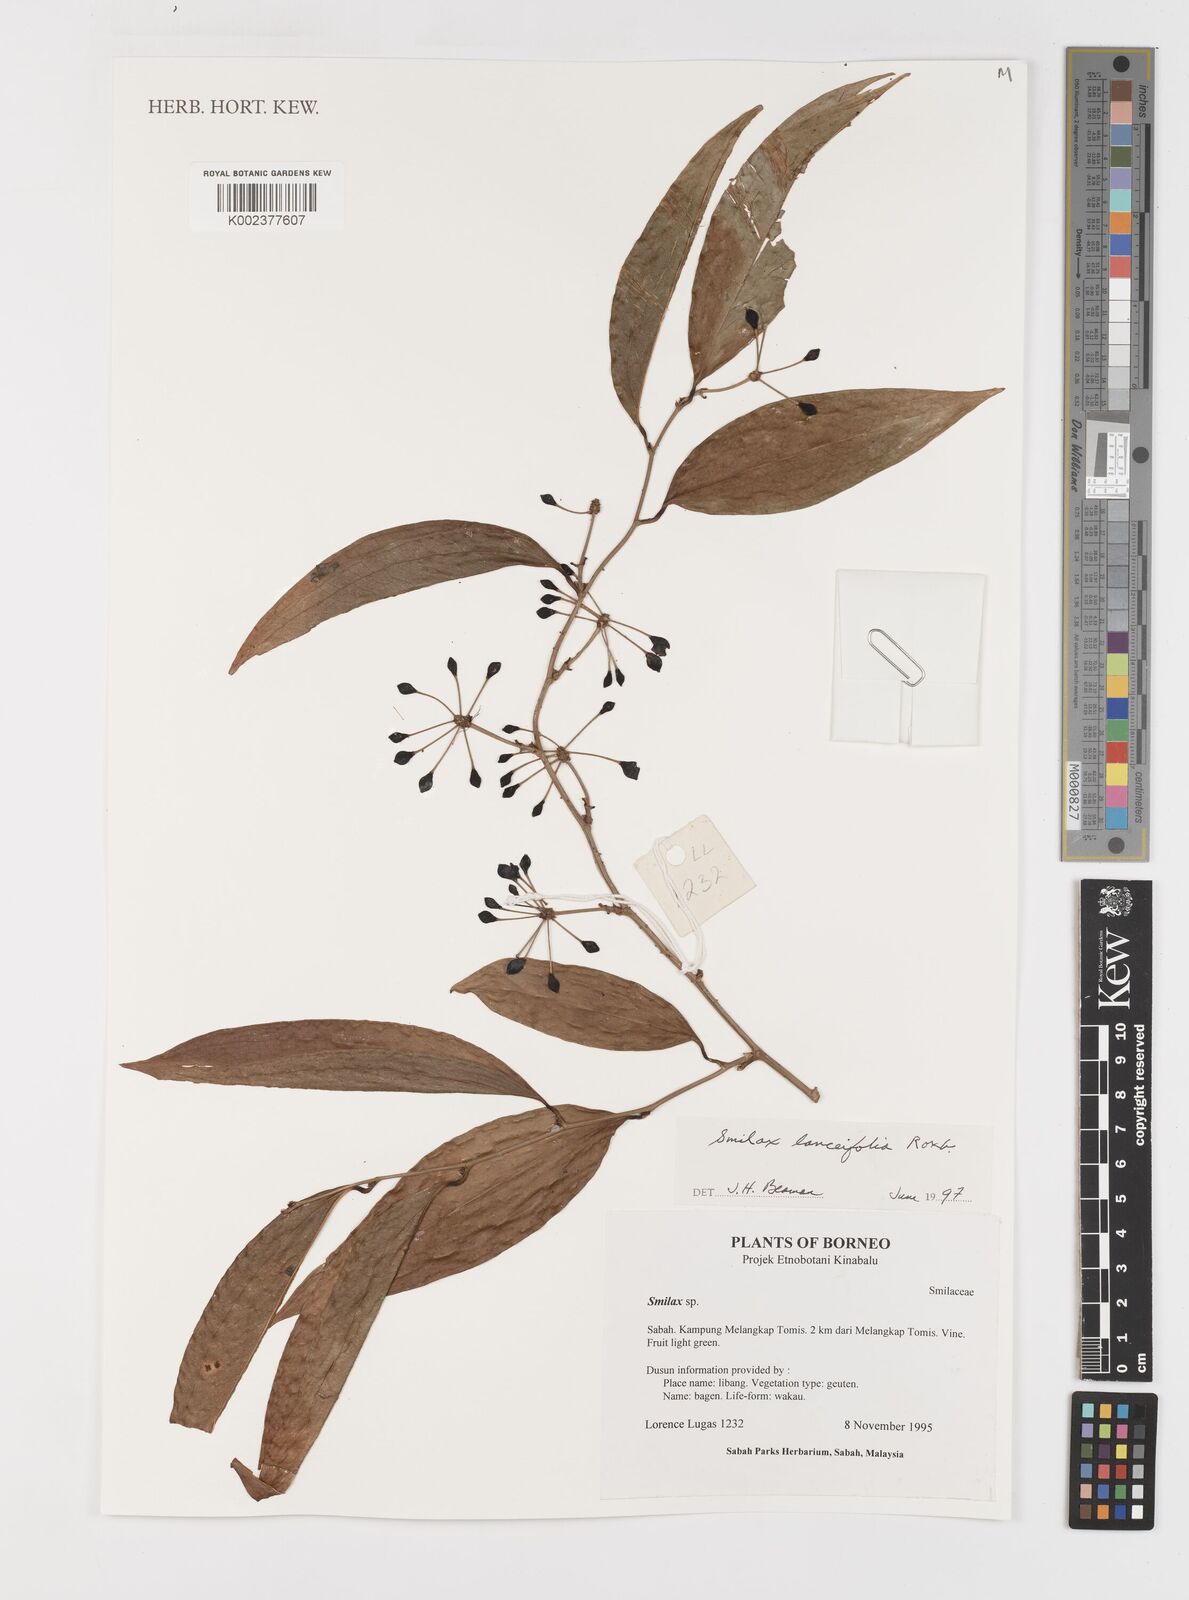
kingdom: Plantae
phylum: Tracheophyta
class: Liliopsida
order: Liliales
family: Smilacaceae
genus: Smilax
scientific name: Smilax lanceifolia
